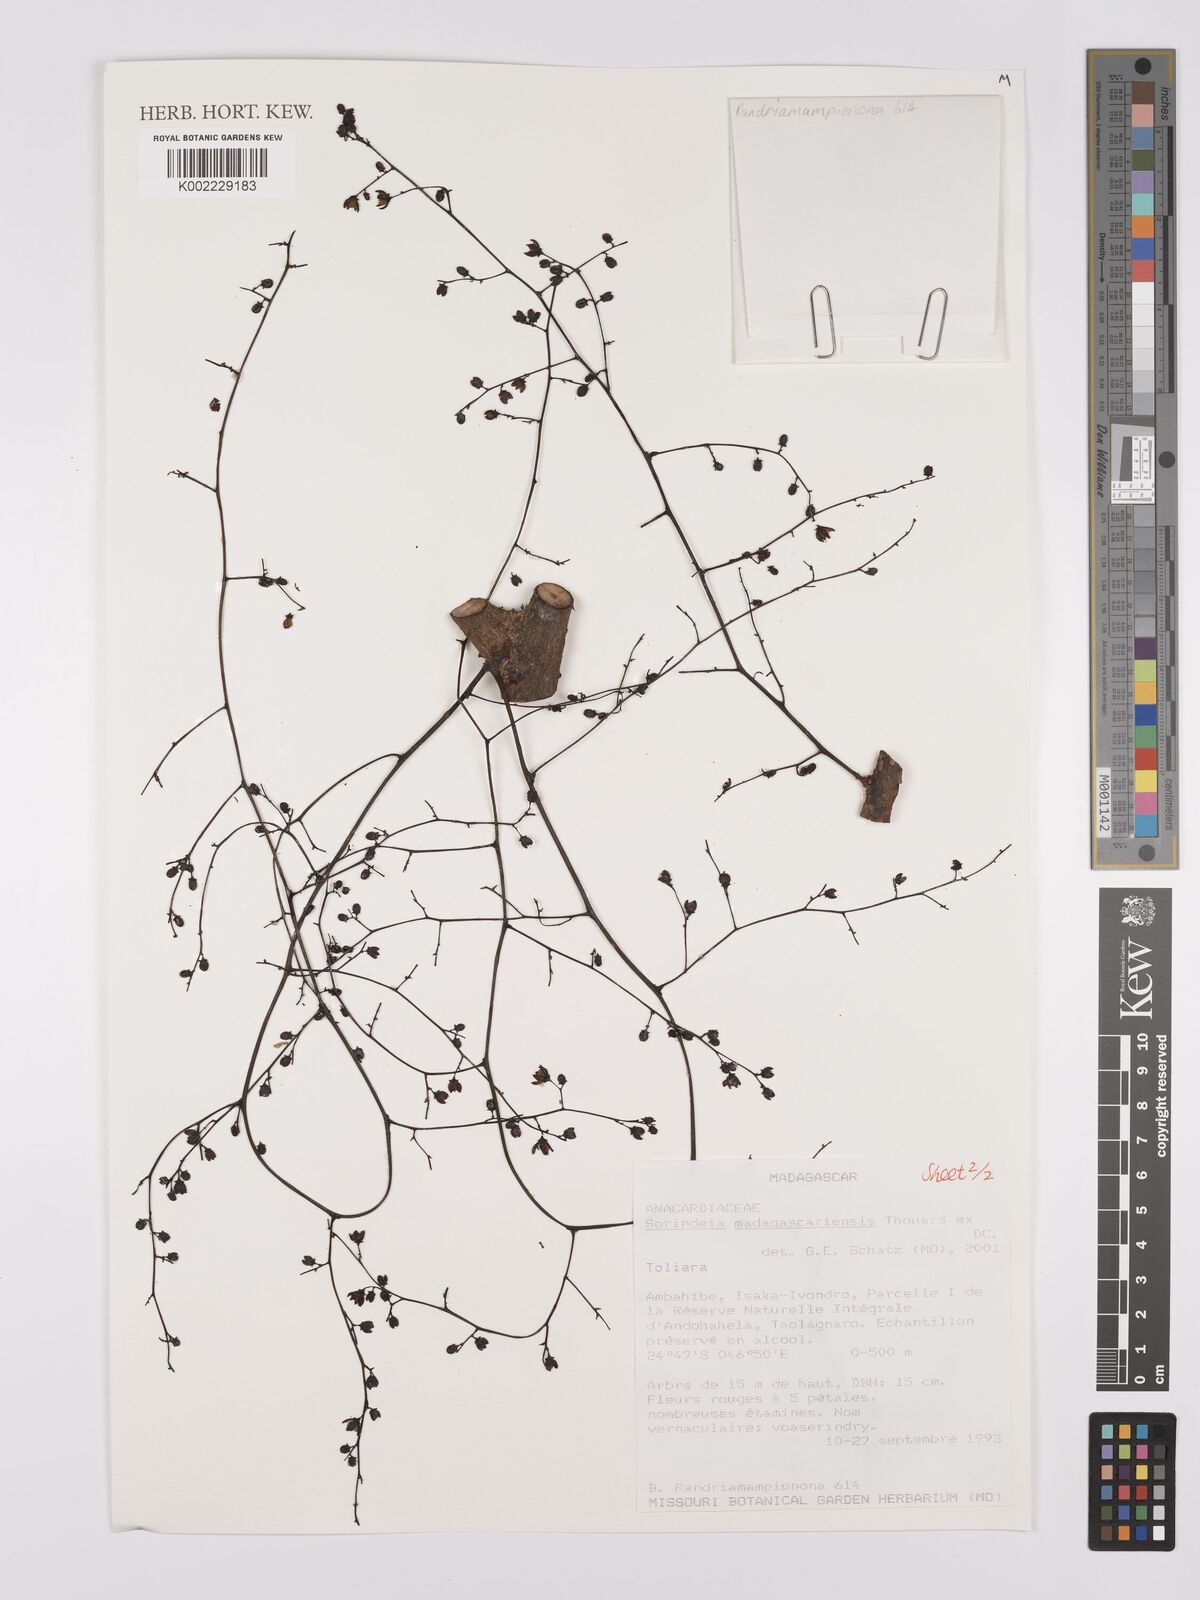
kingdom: Plantae
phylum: Tracheophyta
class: Magnoliopsida
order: Sapindales
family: Anacardiaceae
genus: Sorindeia
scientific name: Sorindeia madagascariensis
